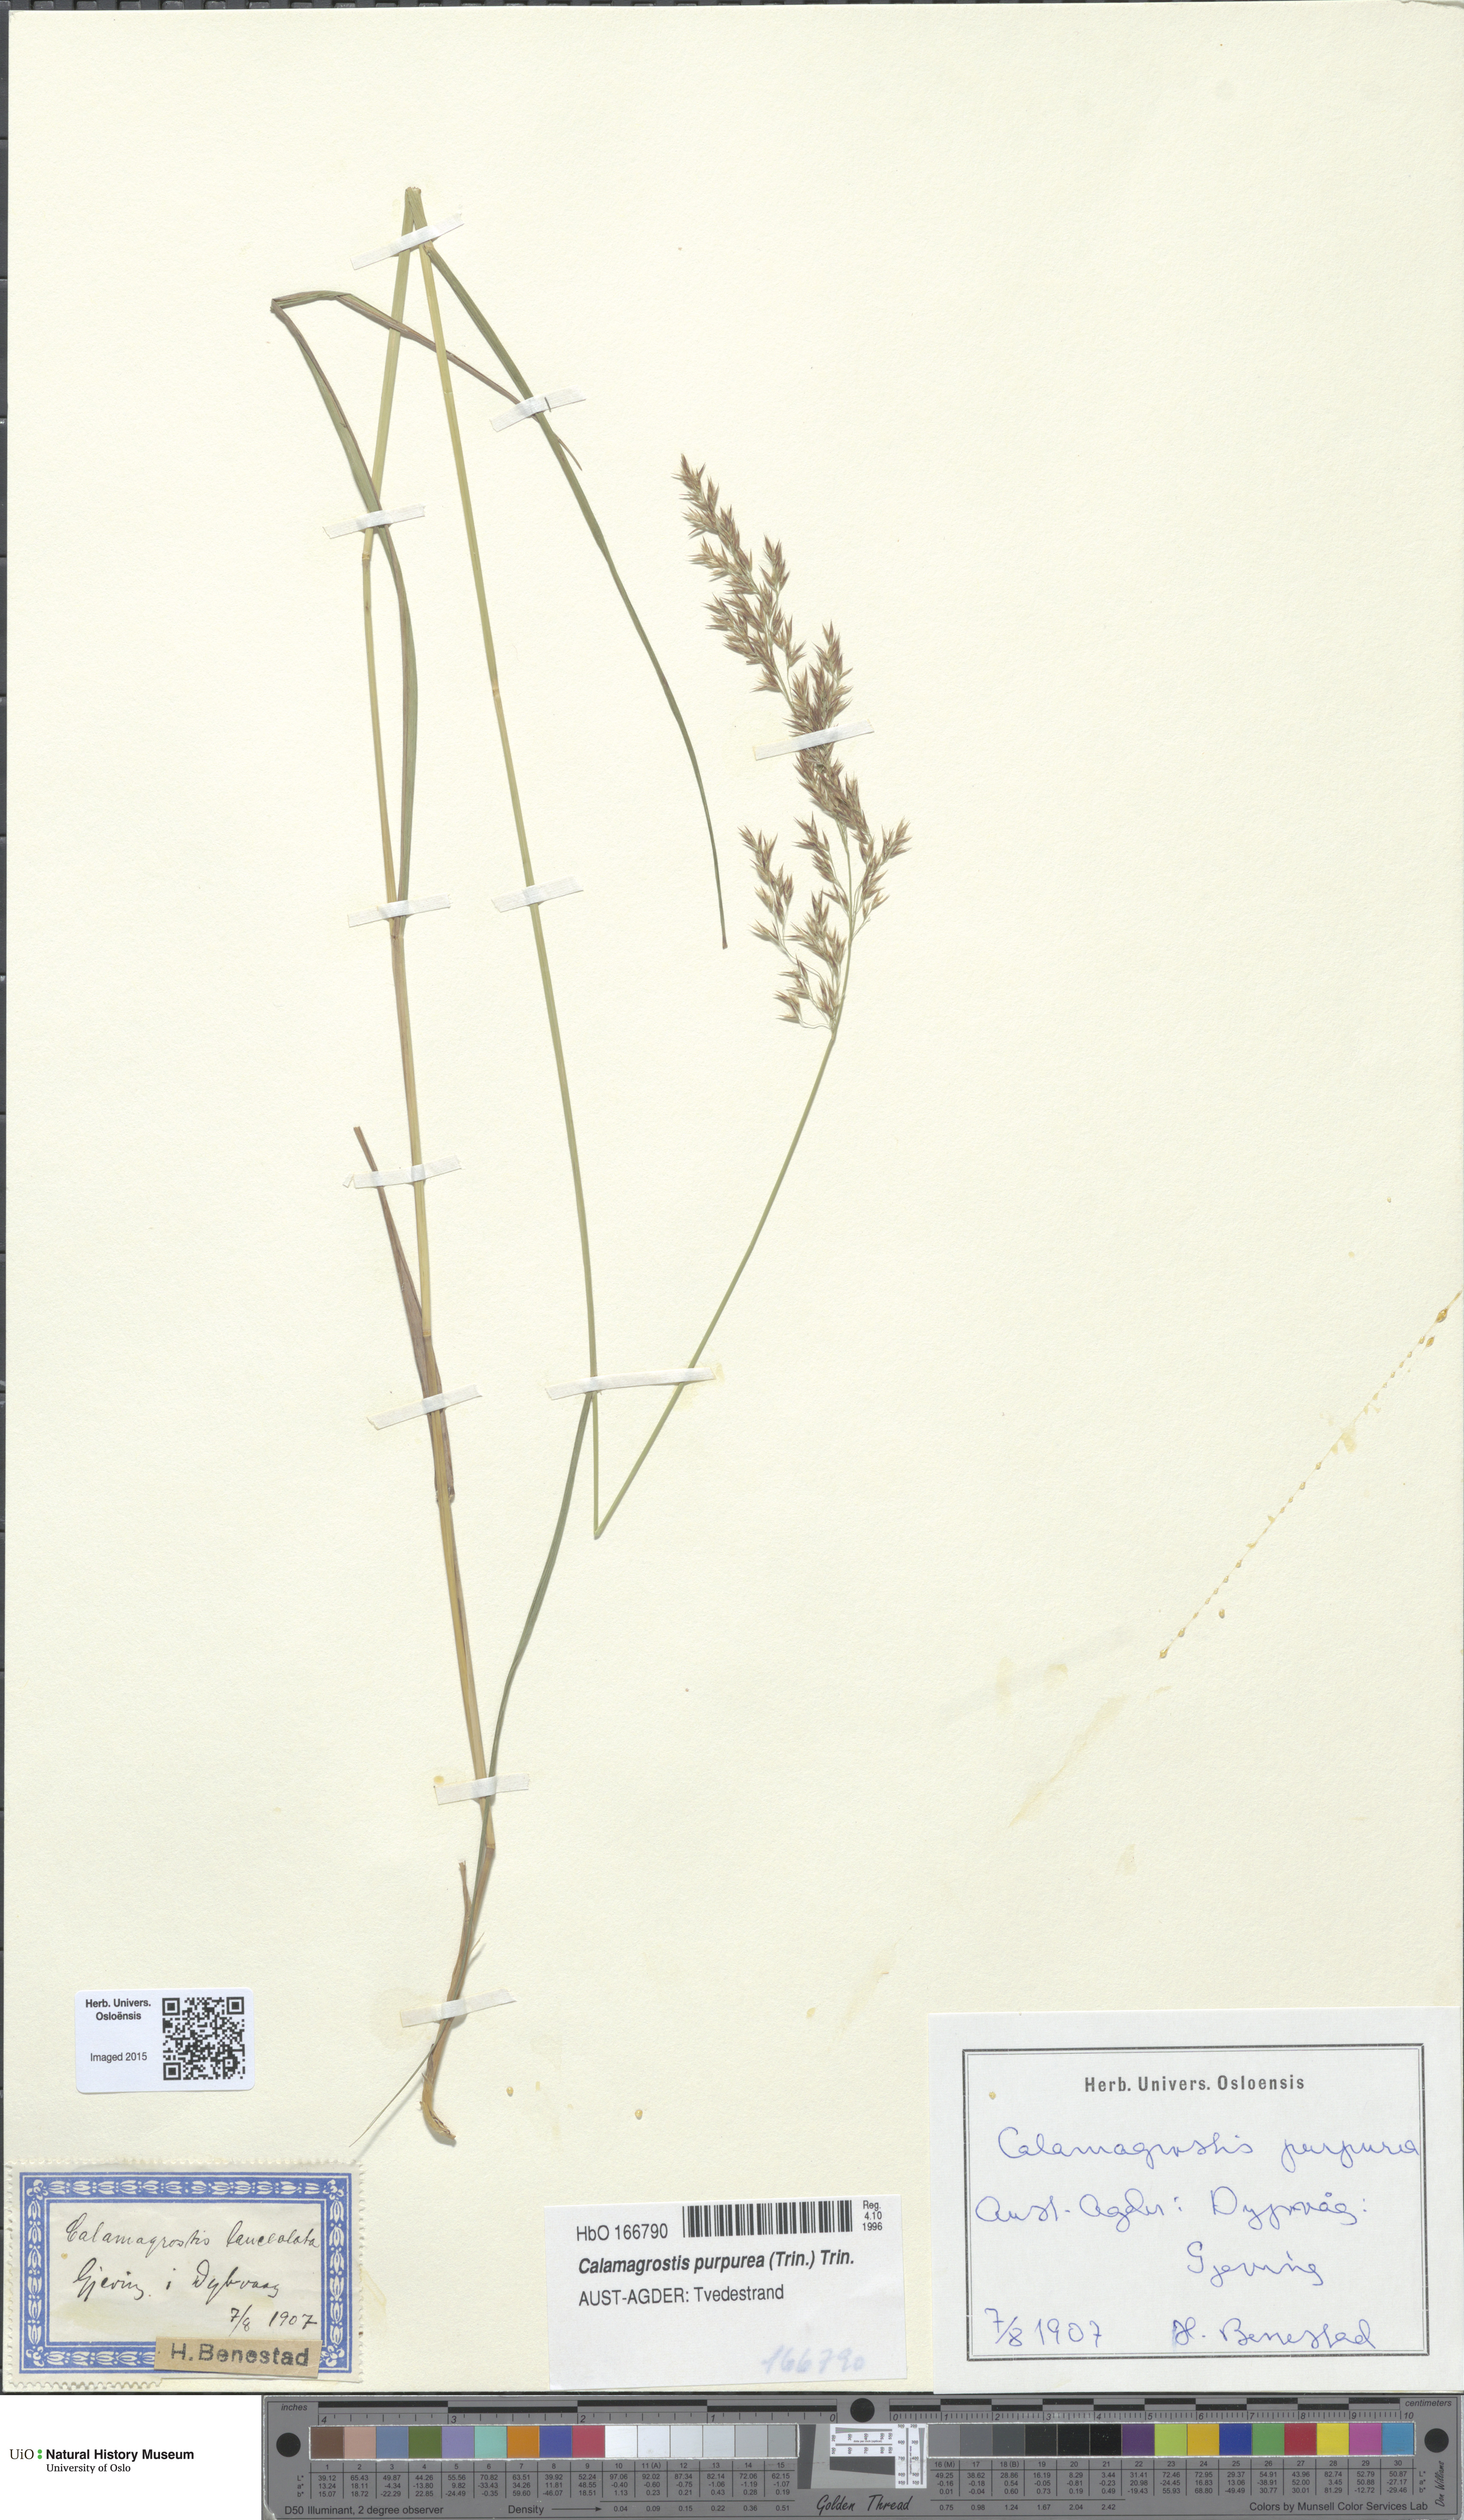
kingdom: Plantae
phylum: Tracheophyta
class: Liliopsida
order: Poales
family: Poaceae
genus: Calamagrostis
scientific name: Calamagrostis purpurea
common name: Scandinavian small-reed
